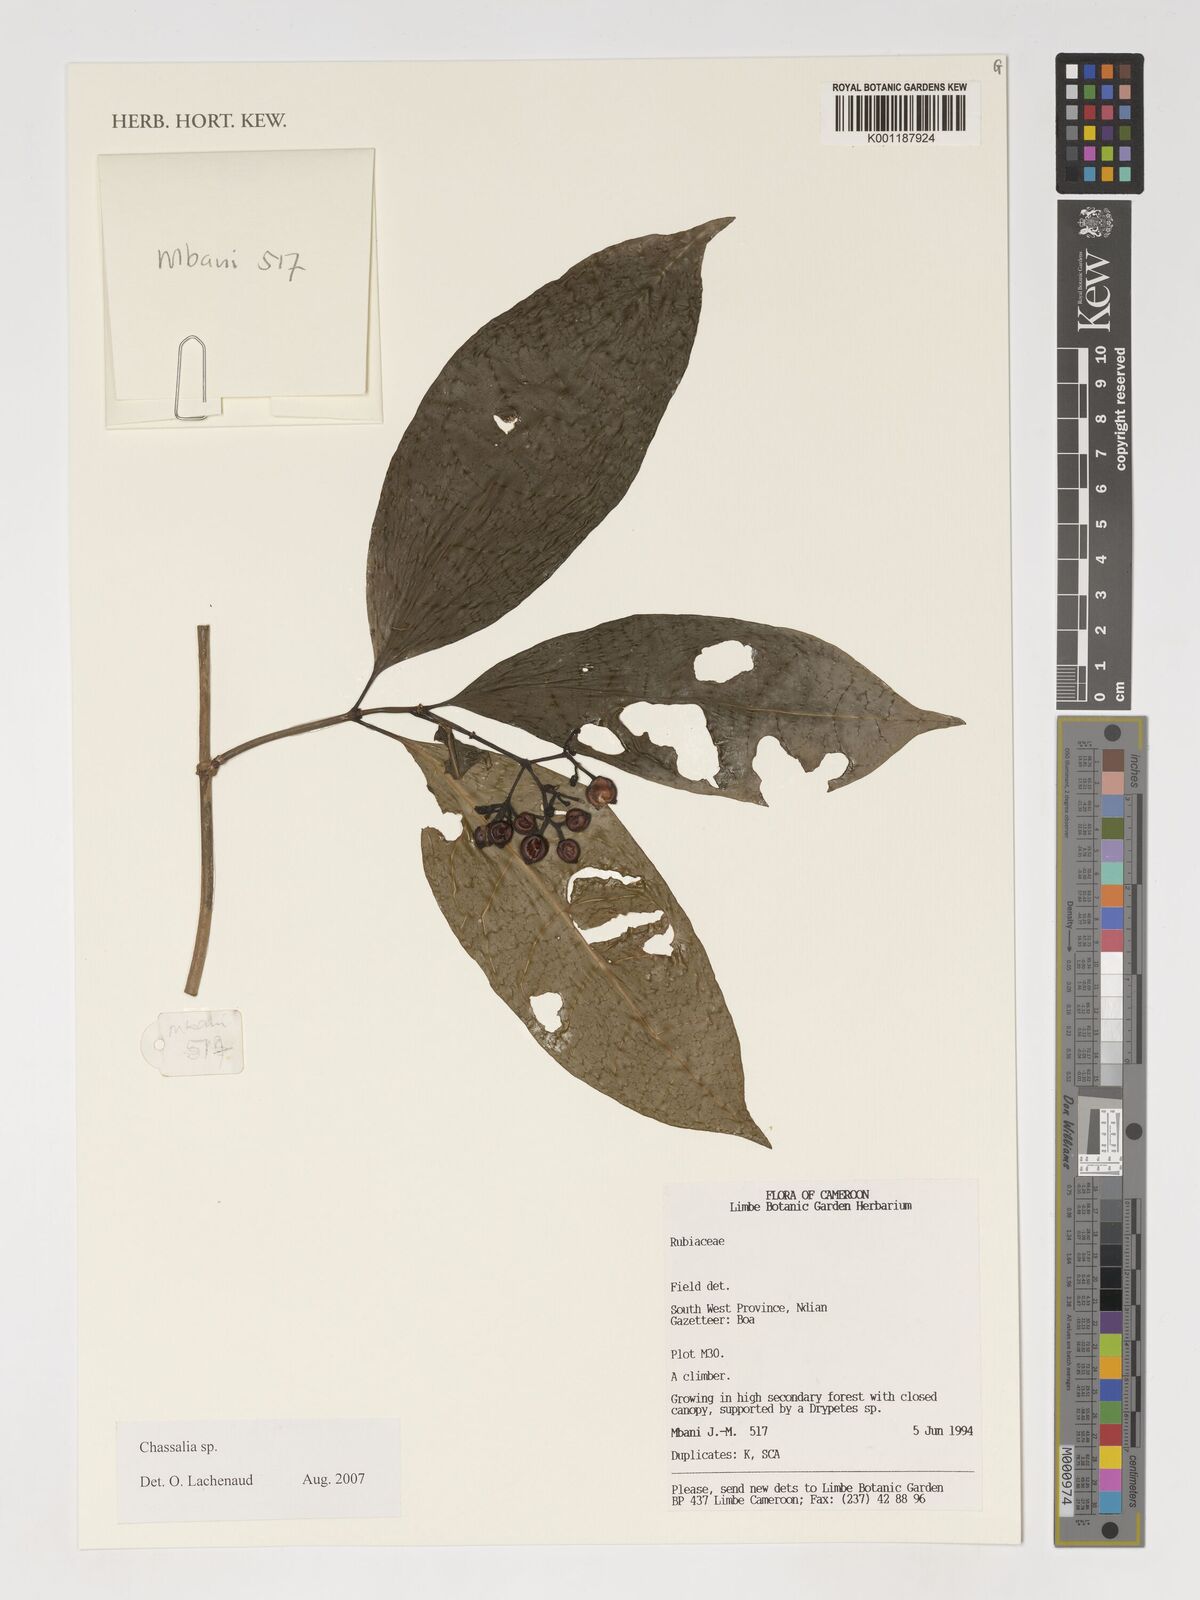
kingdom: Plantae
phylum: Tracheophyta
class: Magnoliopsida
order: Gentianales
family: Rubiaceae
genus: Chassalia
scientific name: Chassalia
